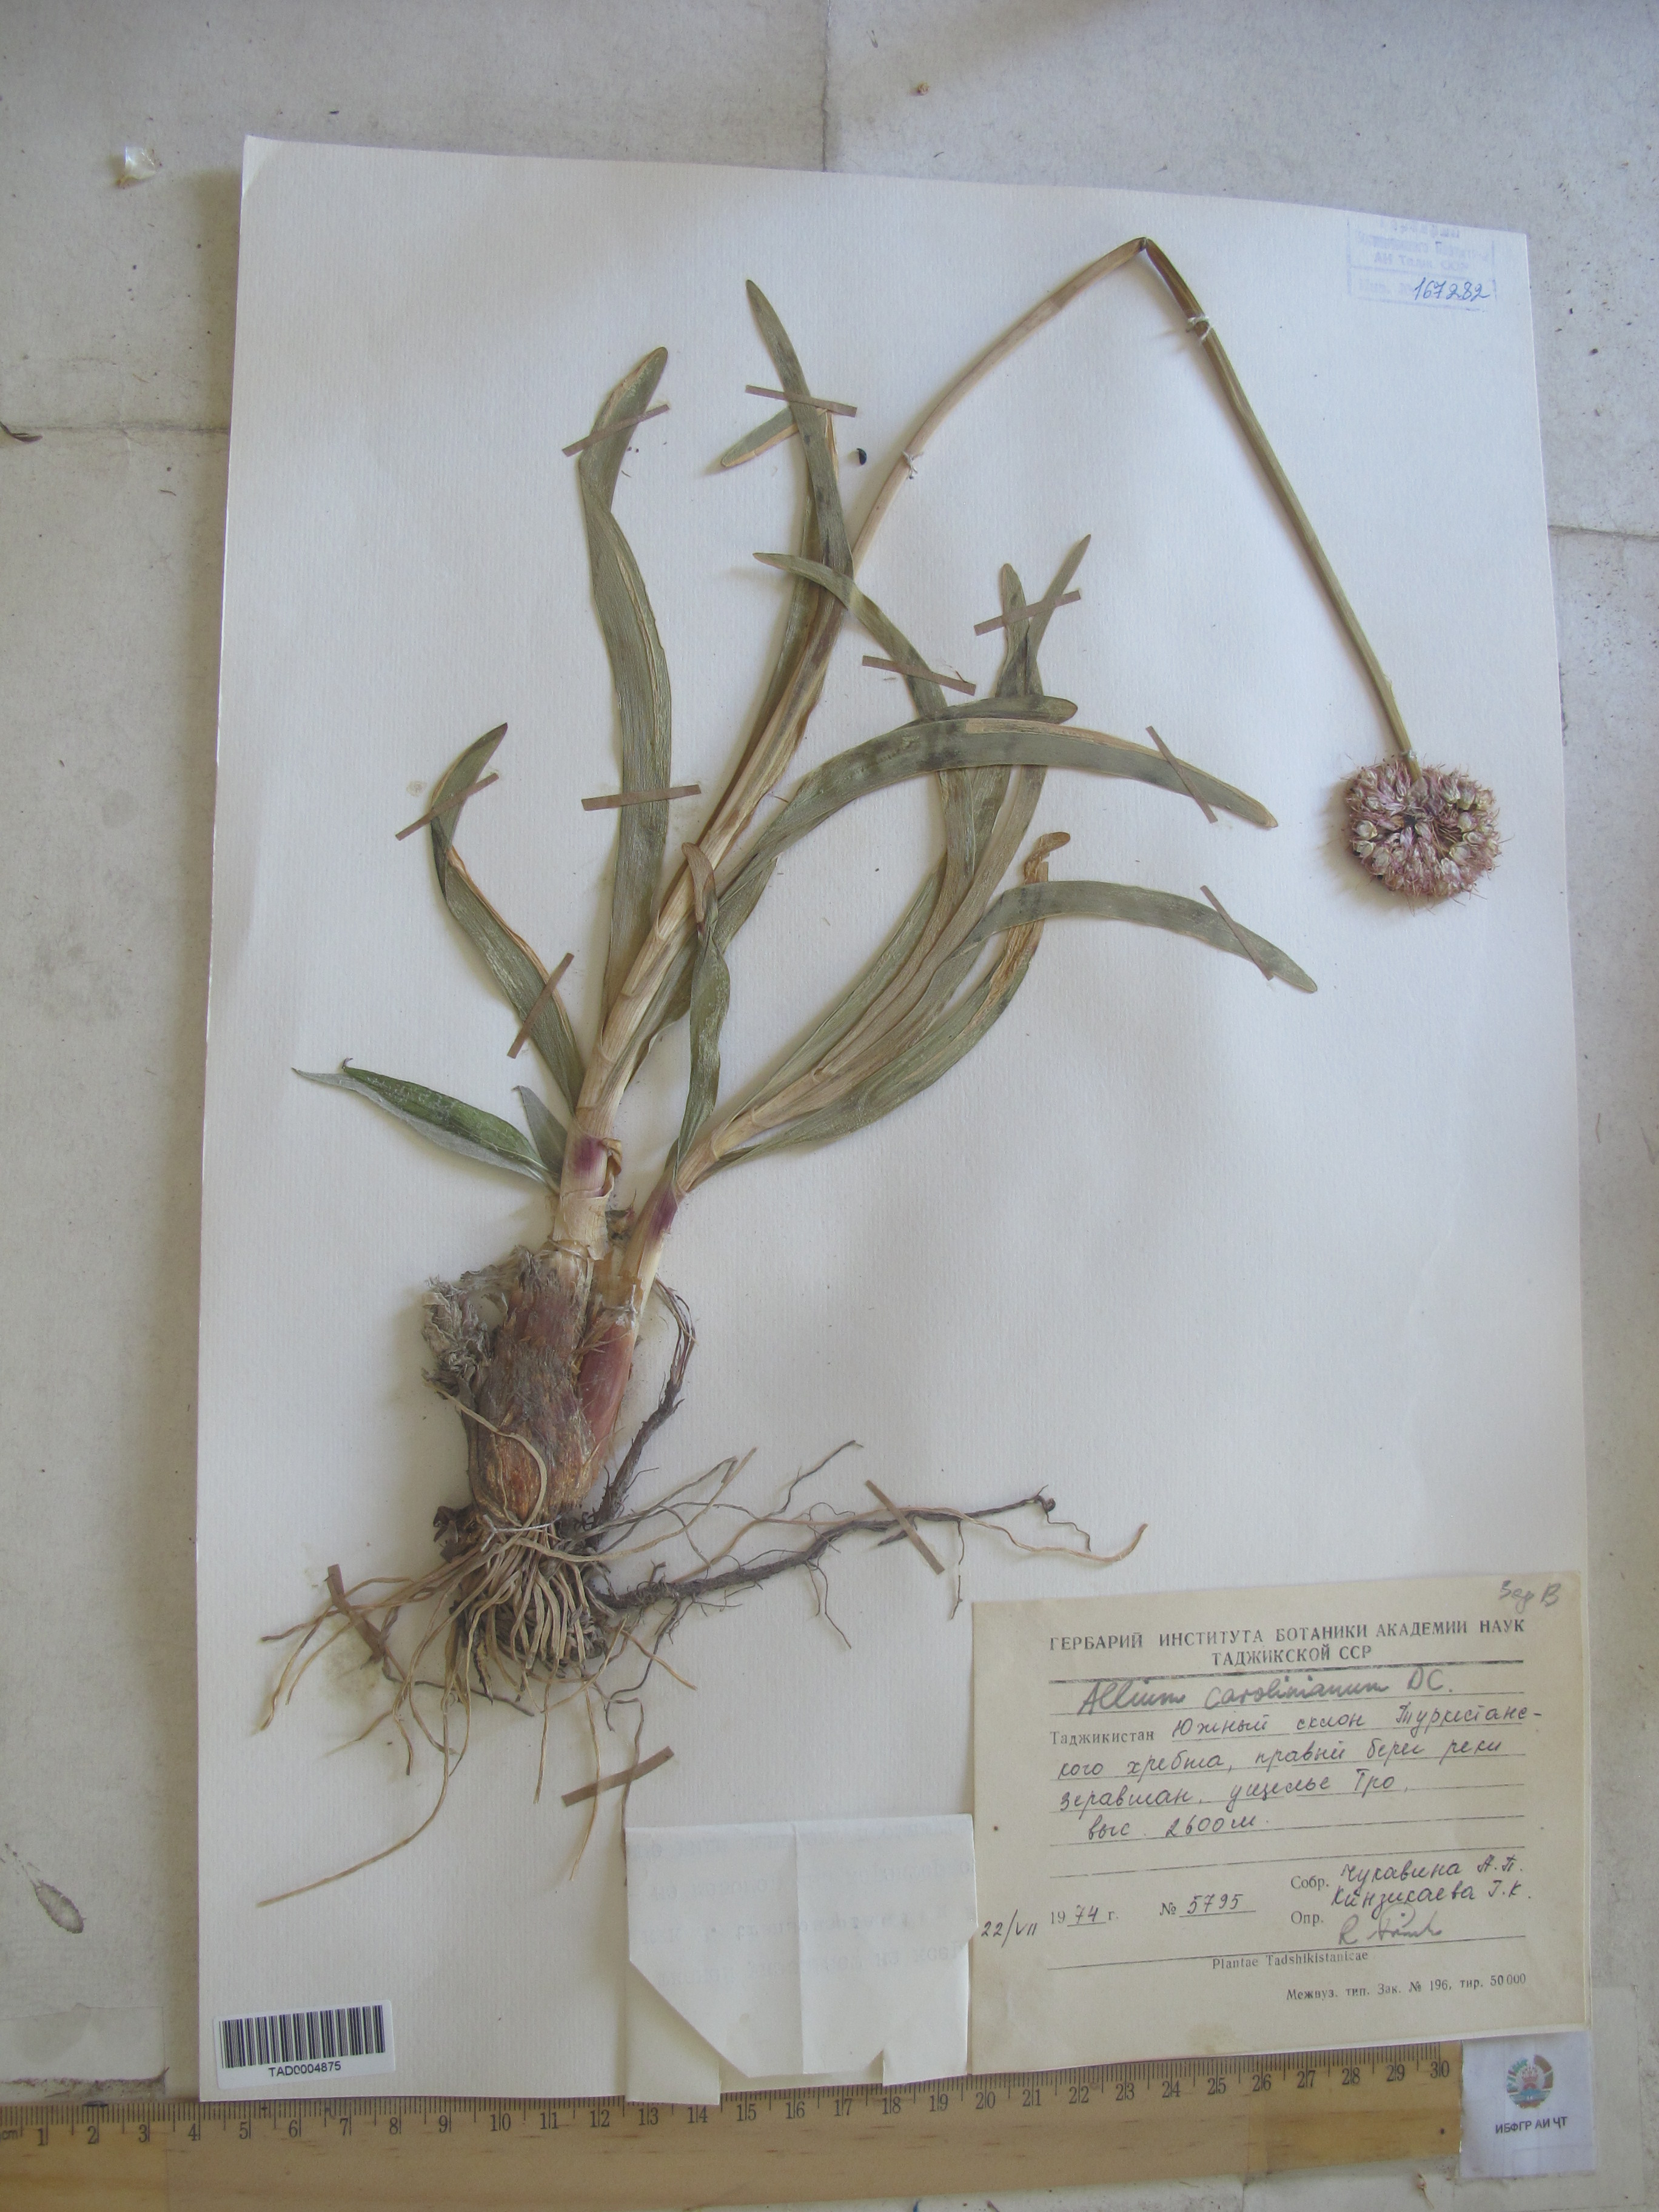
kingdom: Plantae
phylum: Tracheophyta
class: Liliopsida
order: Asparagales
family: Amaryllidaceae
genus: Allium
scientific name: Allium carolinianum
